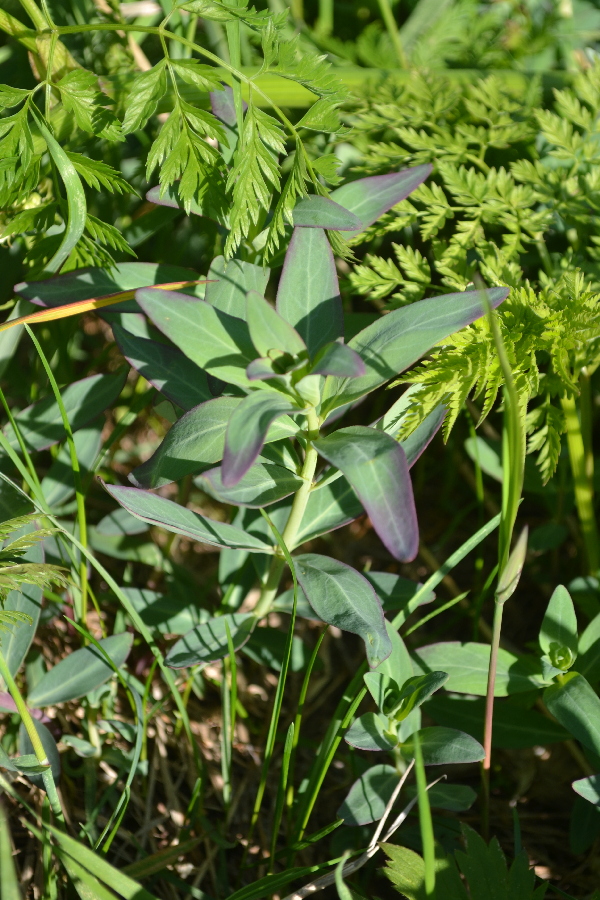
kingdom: Plantae
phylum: Tracheophyta
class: Magnoliopsida
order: Myrtales
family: Onagraceae
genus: Chamaenerion
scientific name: Chamaenerion latifolium
